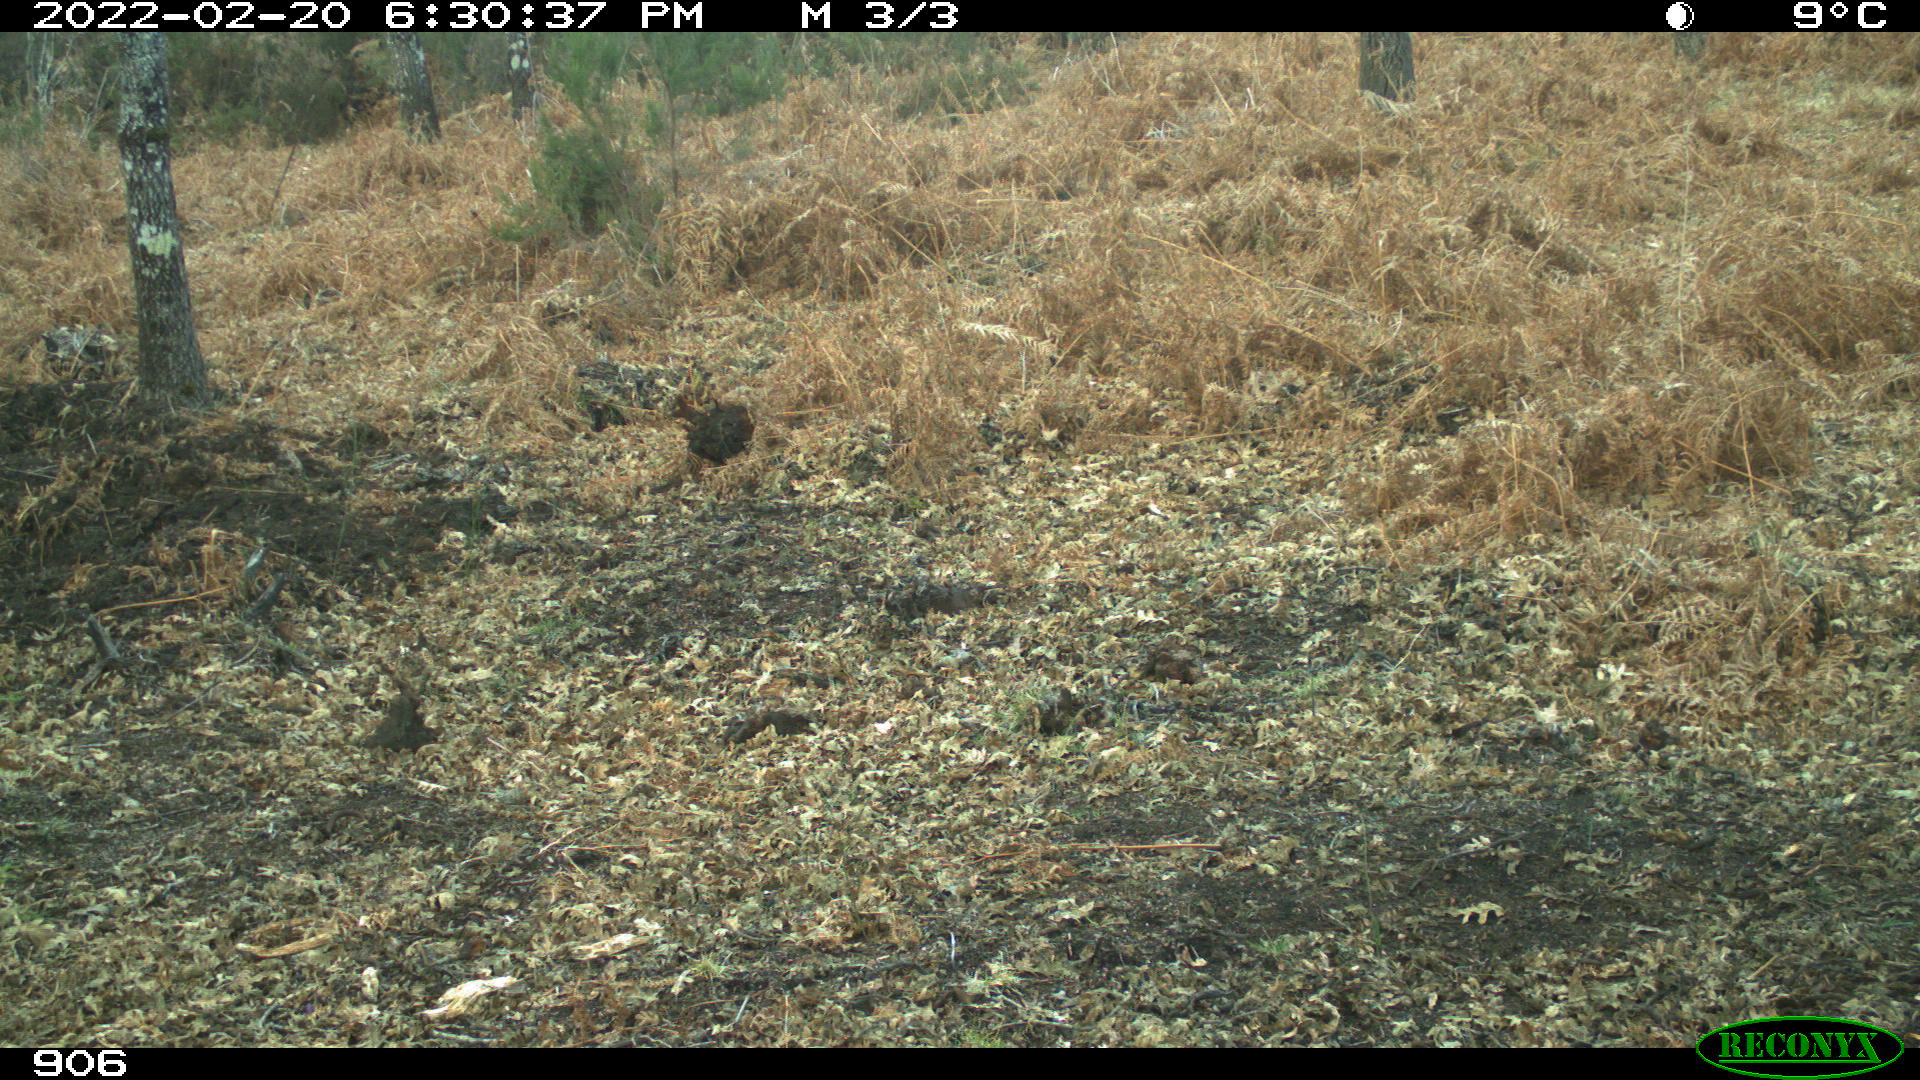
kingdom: Animalia
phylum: Chordata
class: Mammalia
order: Artiodactyla
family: Suidae
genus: Sus
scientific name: Sus scrofa
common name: Wild boar
